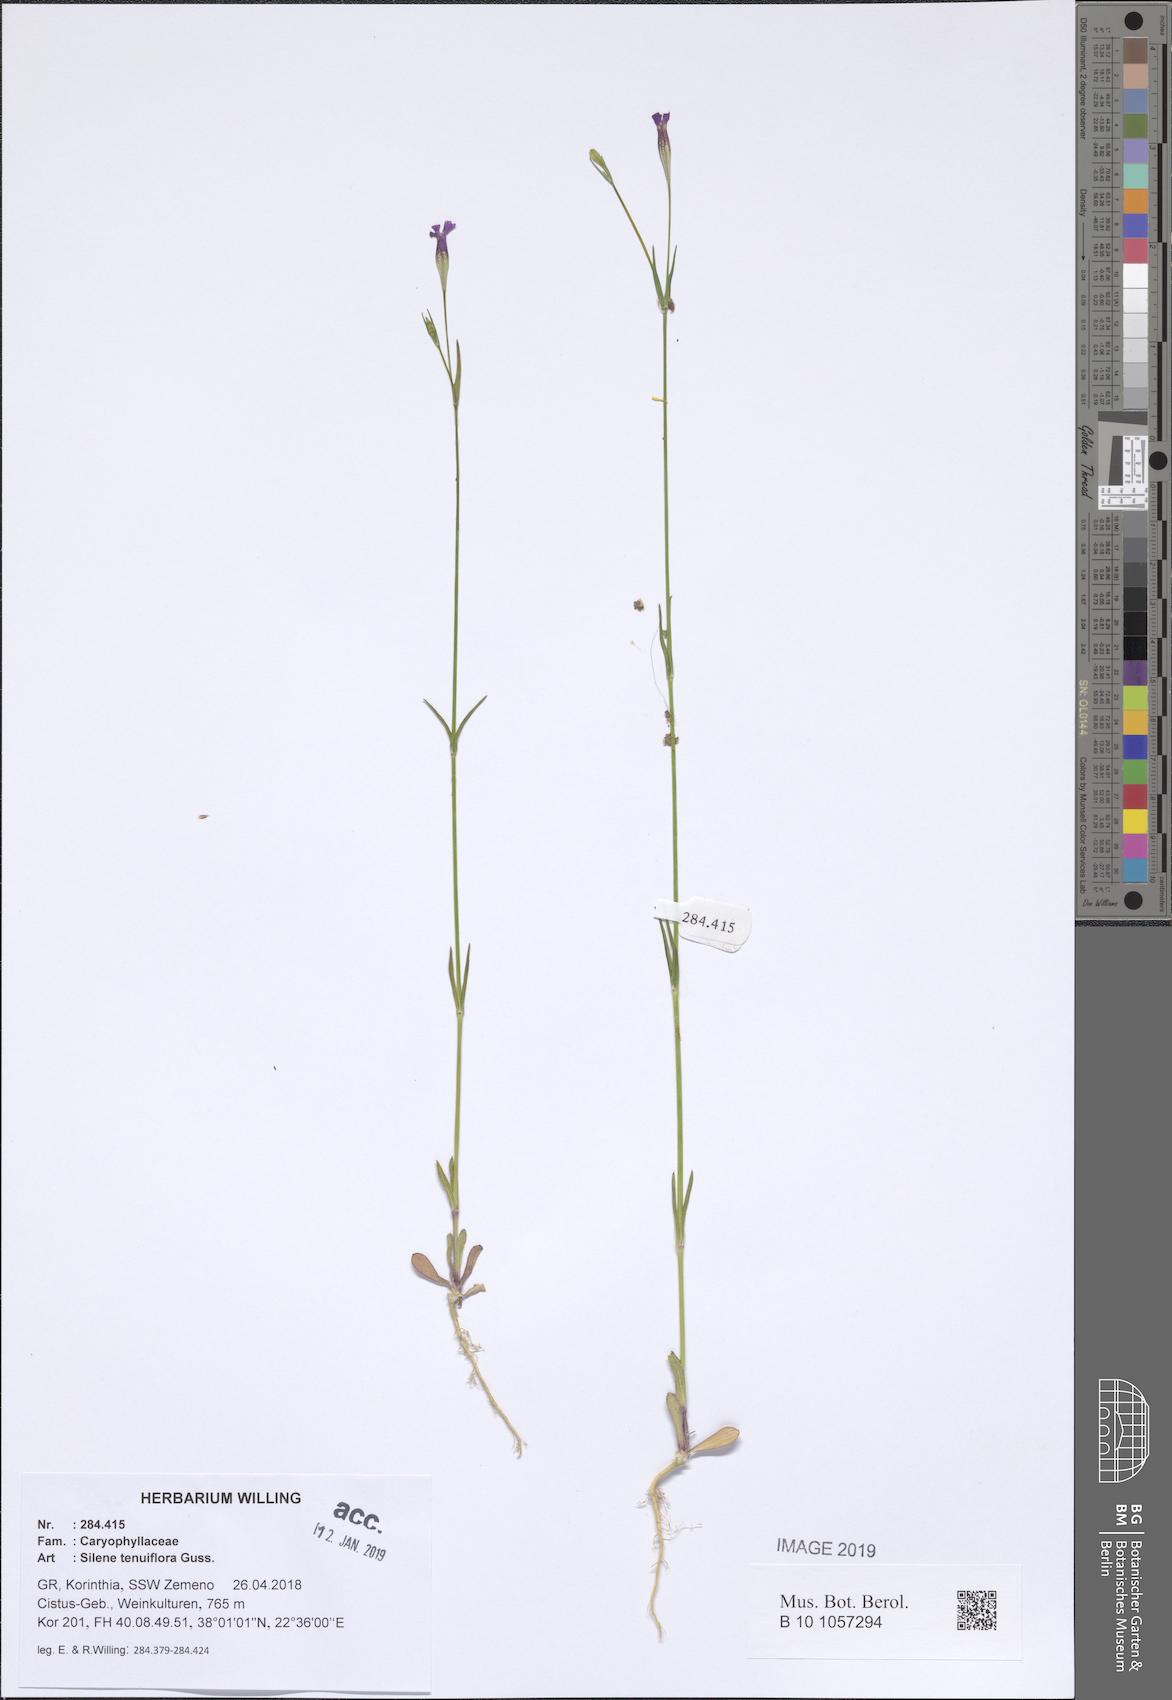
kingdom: Plantae
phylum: Tracheophyta
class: Magnoliopsida
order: Caryophyllales
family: Caryophyllaceae
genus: Silene
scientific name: Silene tenuiflora
